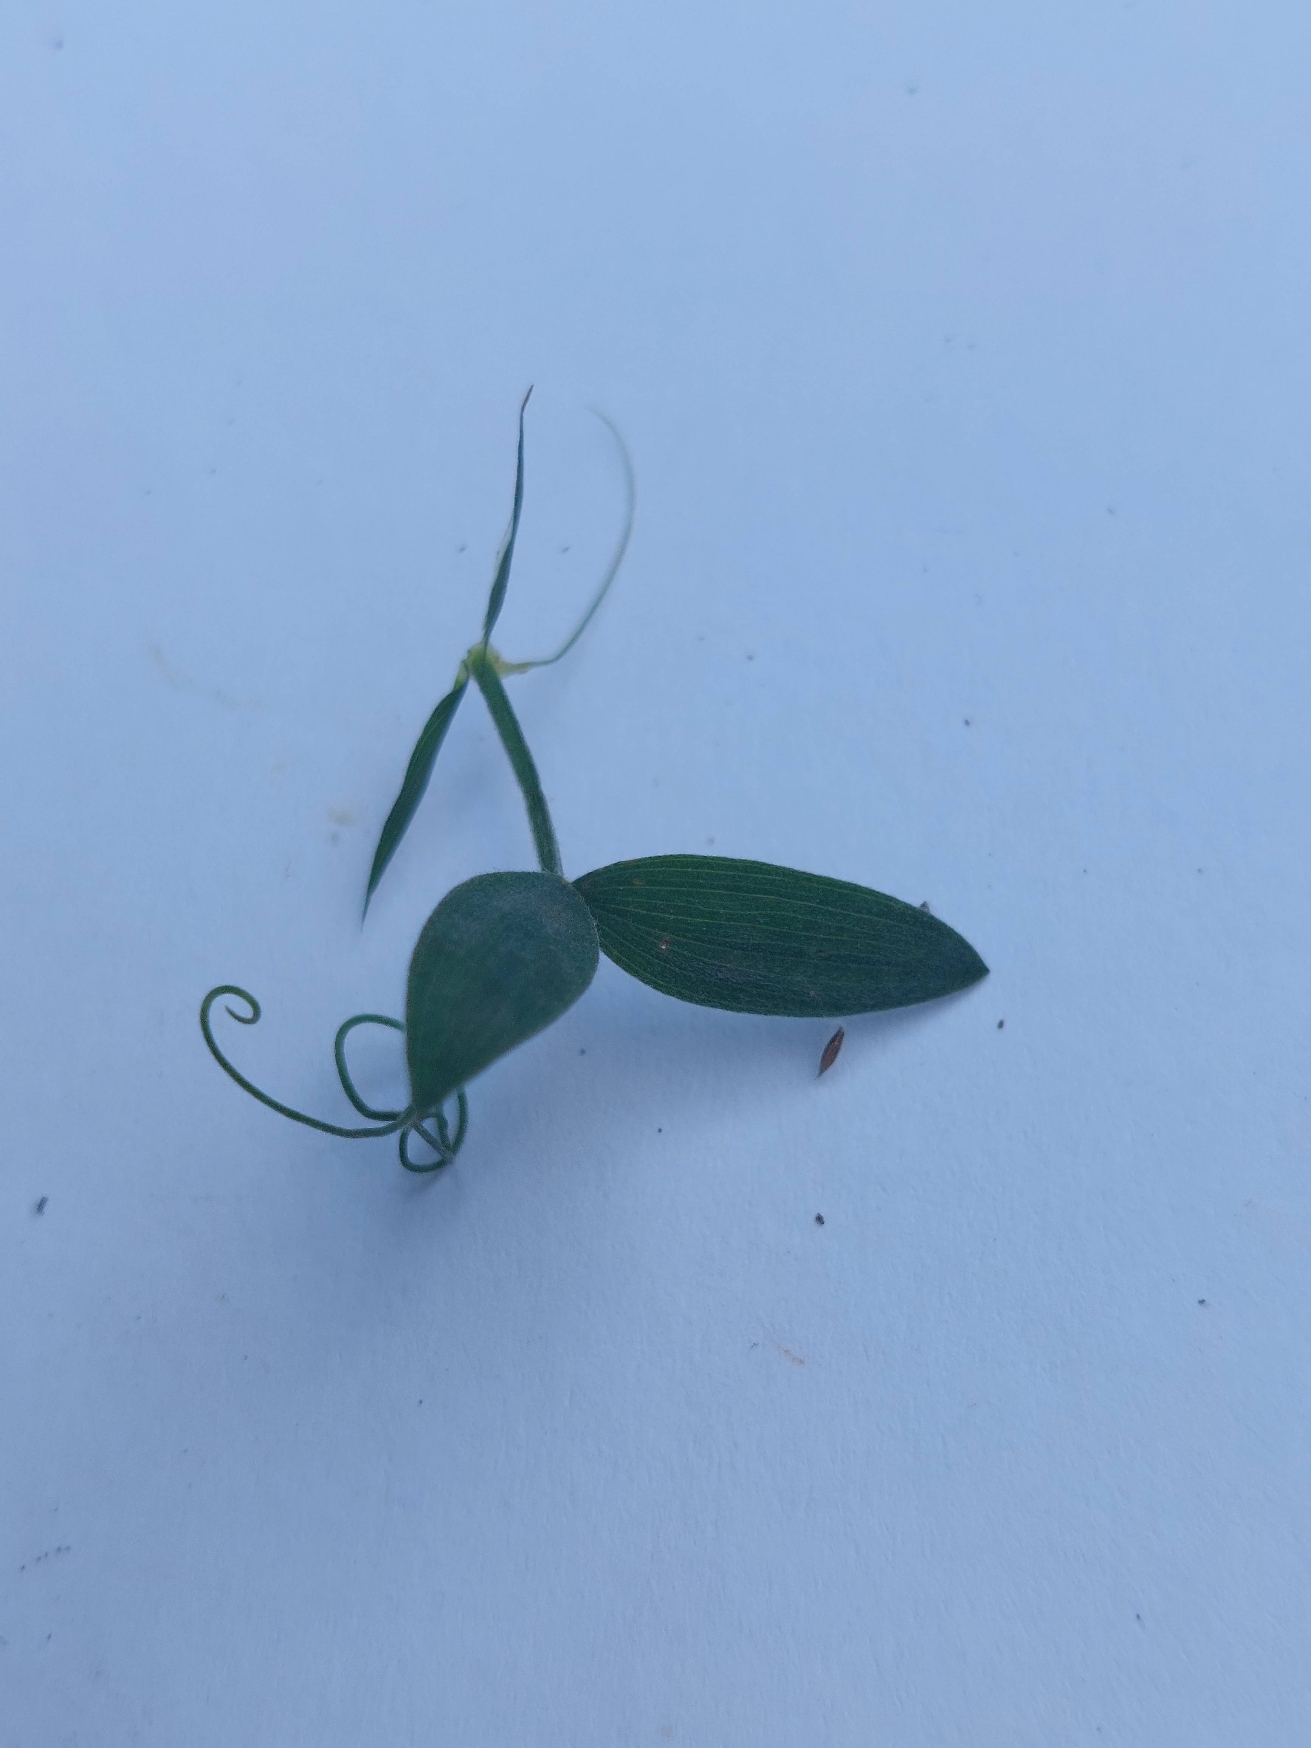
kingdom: Plantae
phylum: Tracheophyta
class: Magnoliopsida
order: Fabales
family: Fabaceae
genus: Lathyrus
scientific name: Lathyrus pratensis
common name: Gul fladbælg
